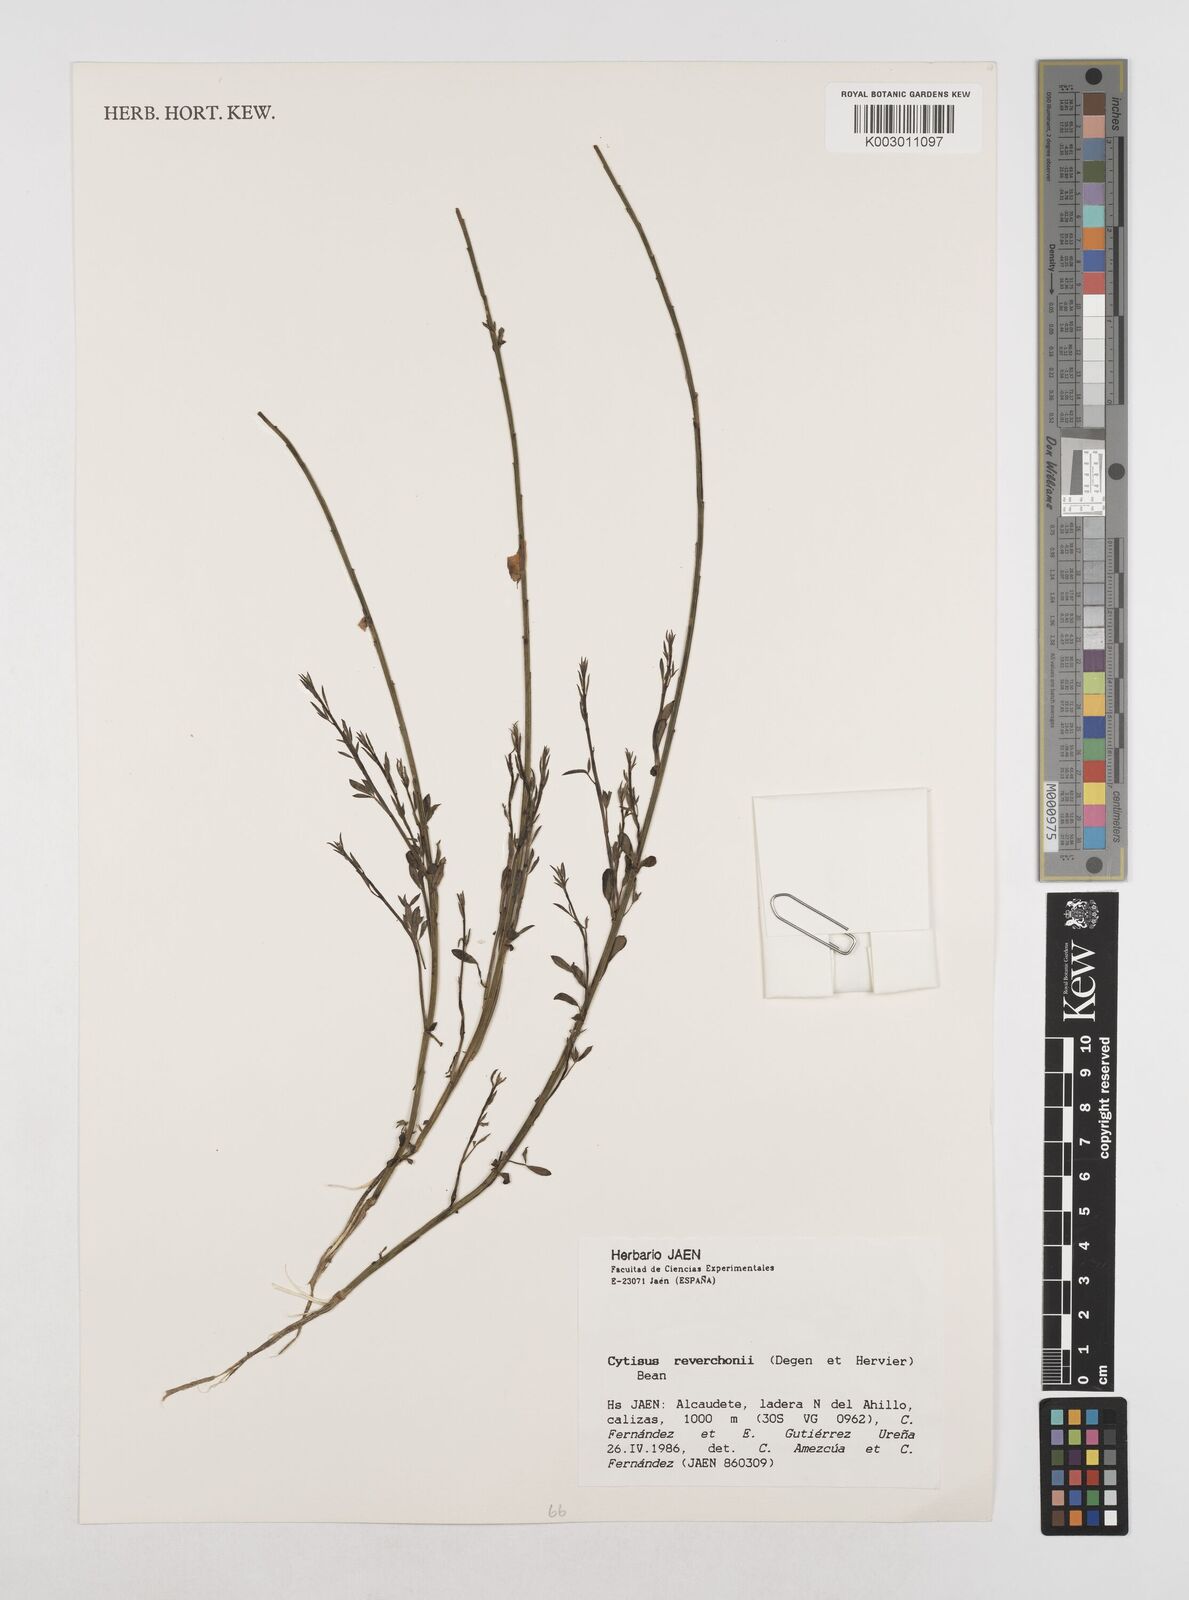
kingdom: Plantae
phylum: Tracheophyta
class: Magnoliopsida
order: Fabales
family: Fabaceae
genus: Cytisus
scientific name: Cytisus scoparius
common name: Scotch broom
